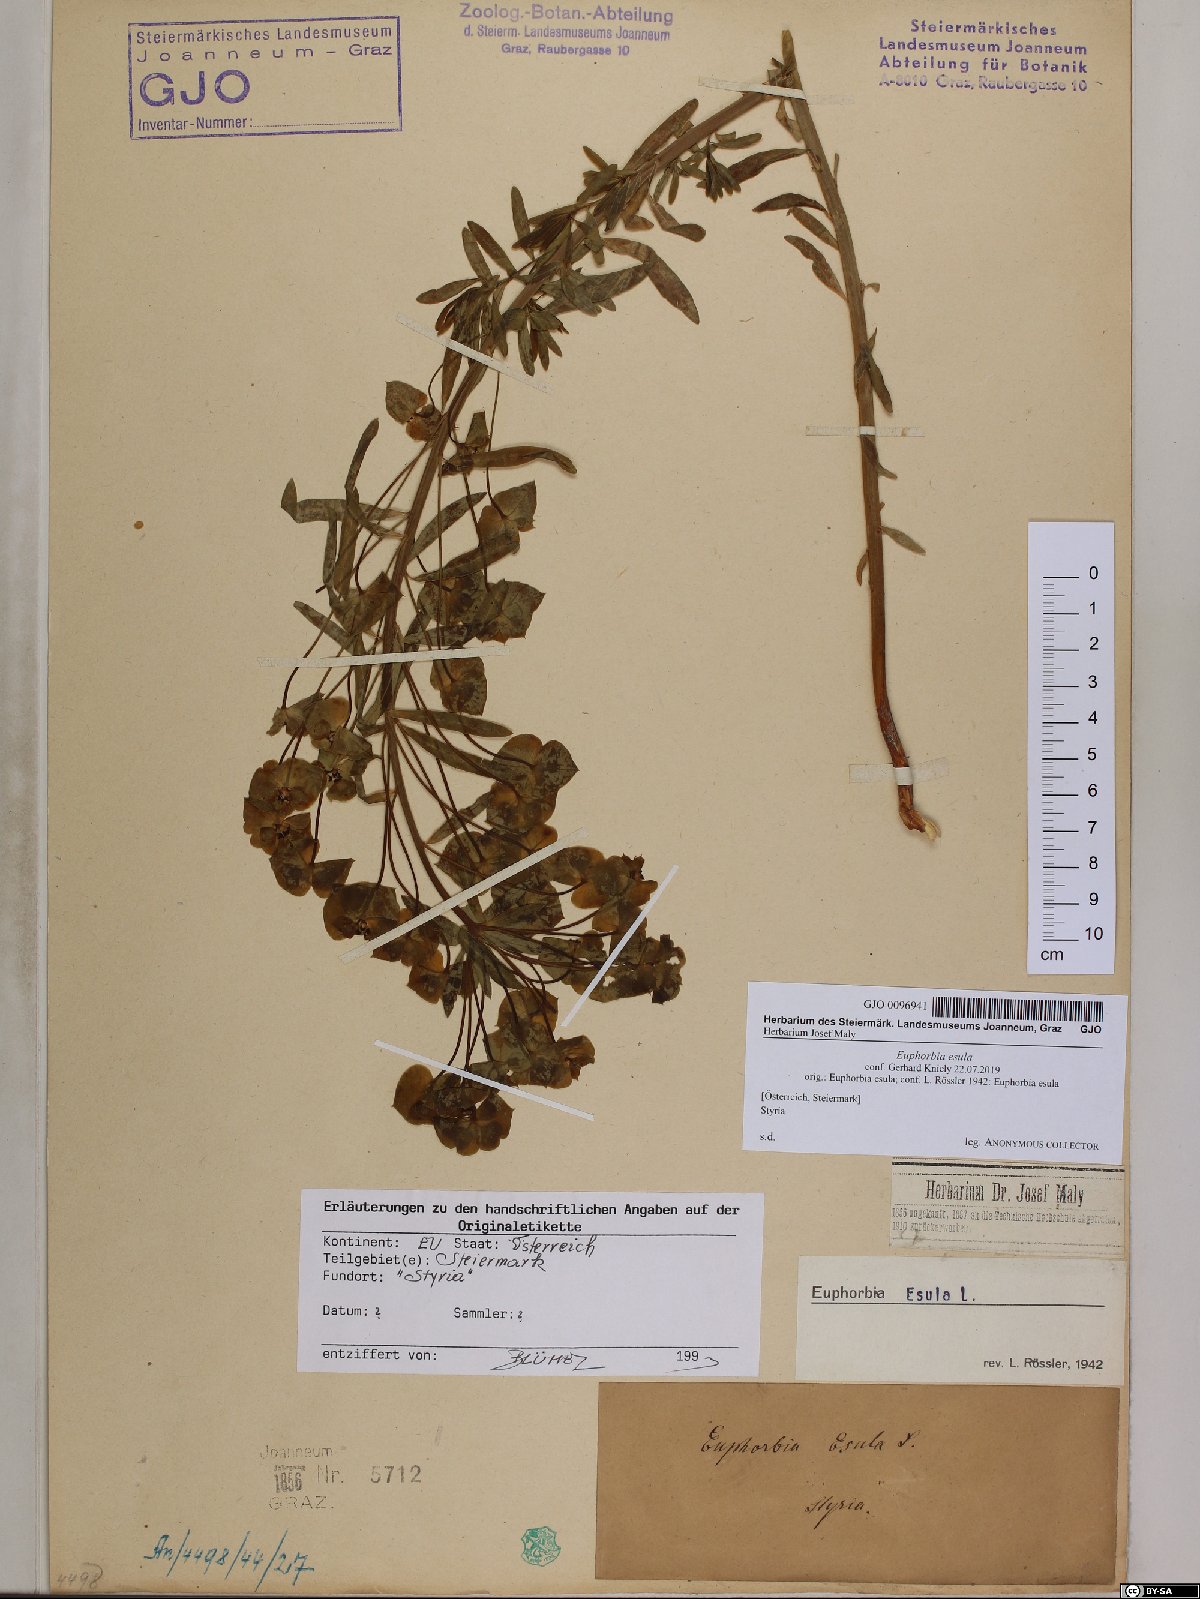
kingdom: Plantae
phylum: Tracheophyta
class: Magnoliopsida
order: Malpighiales
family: Euphorbiaceae
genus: Euphorbia
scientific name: Euphorbia esula
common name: Leafy spurge
